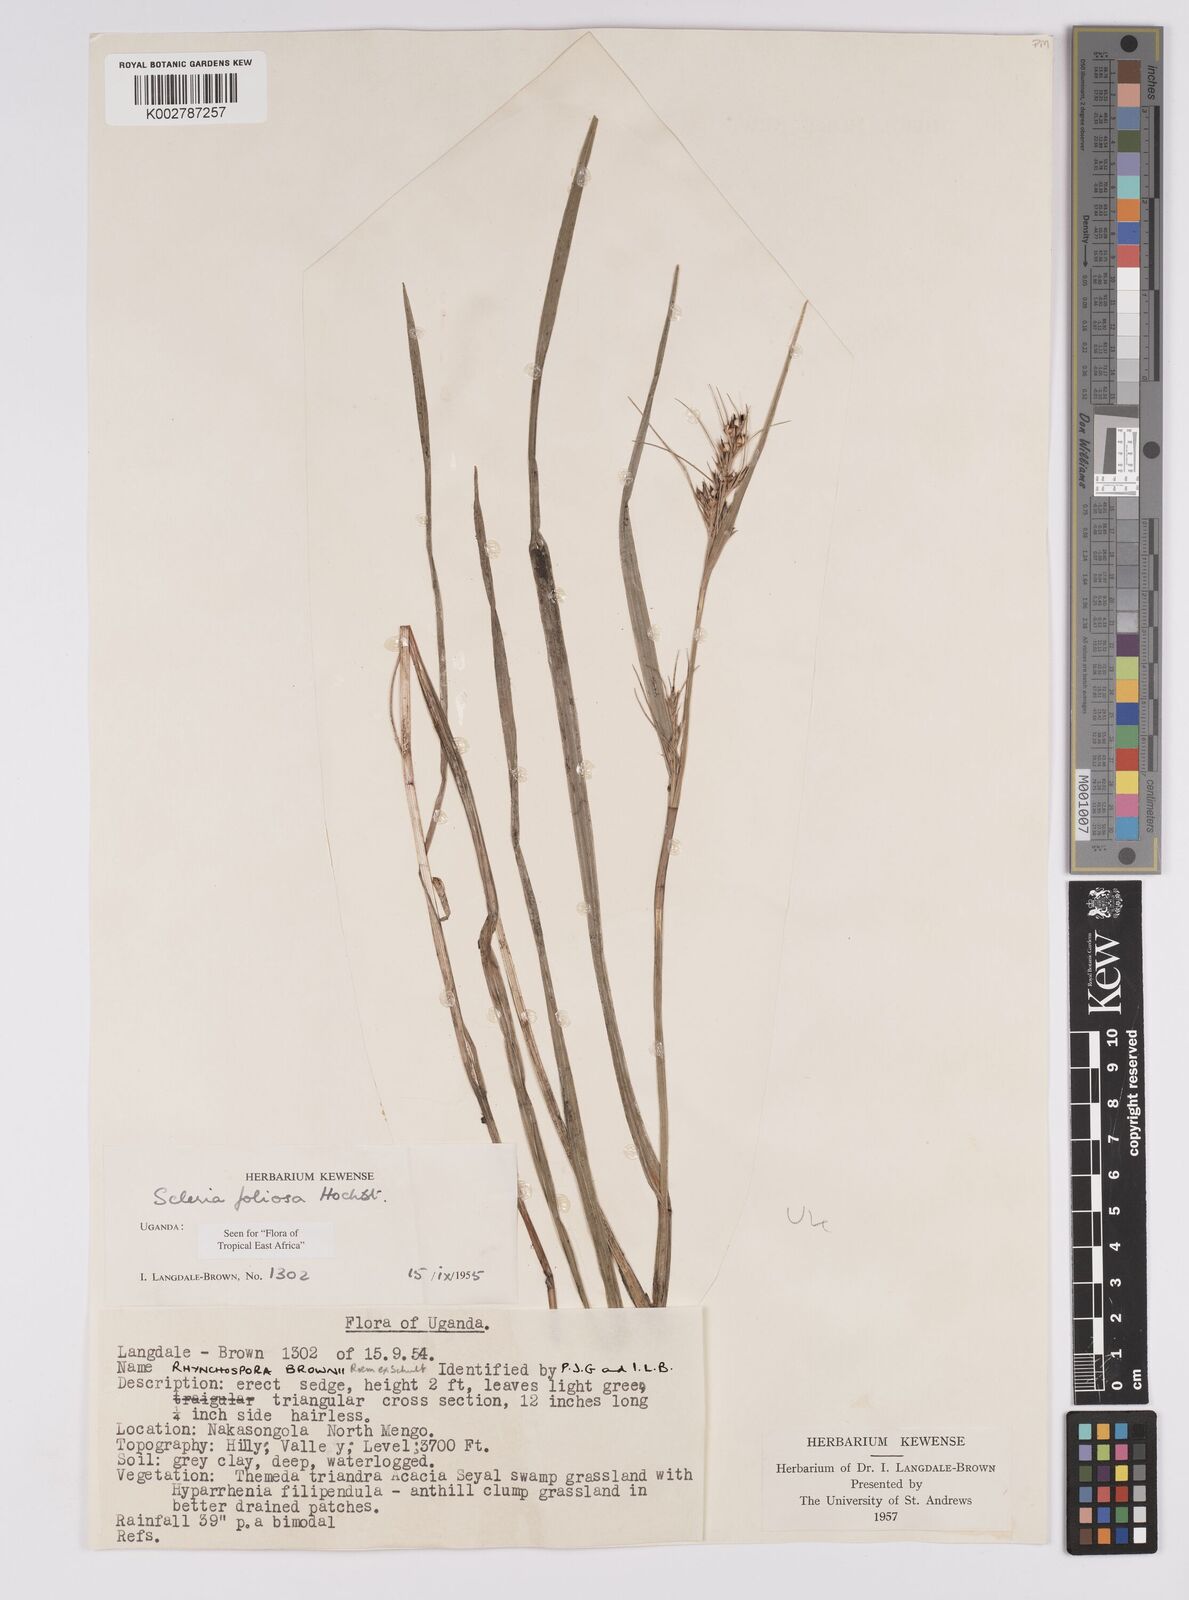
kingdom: Plantae
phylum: Tracheophyta
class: Liliopsida
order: Poales
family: Cyperaceae
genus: Scleria
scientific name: Scleria foliosa
